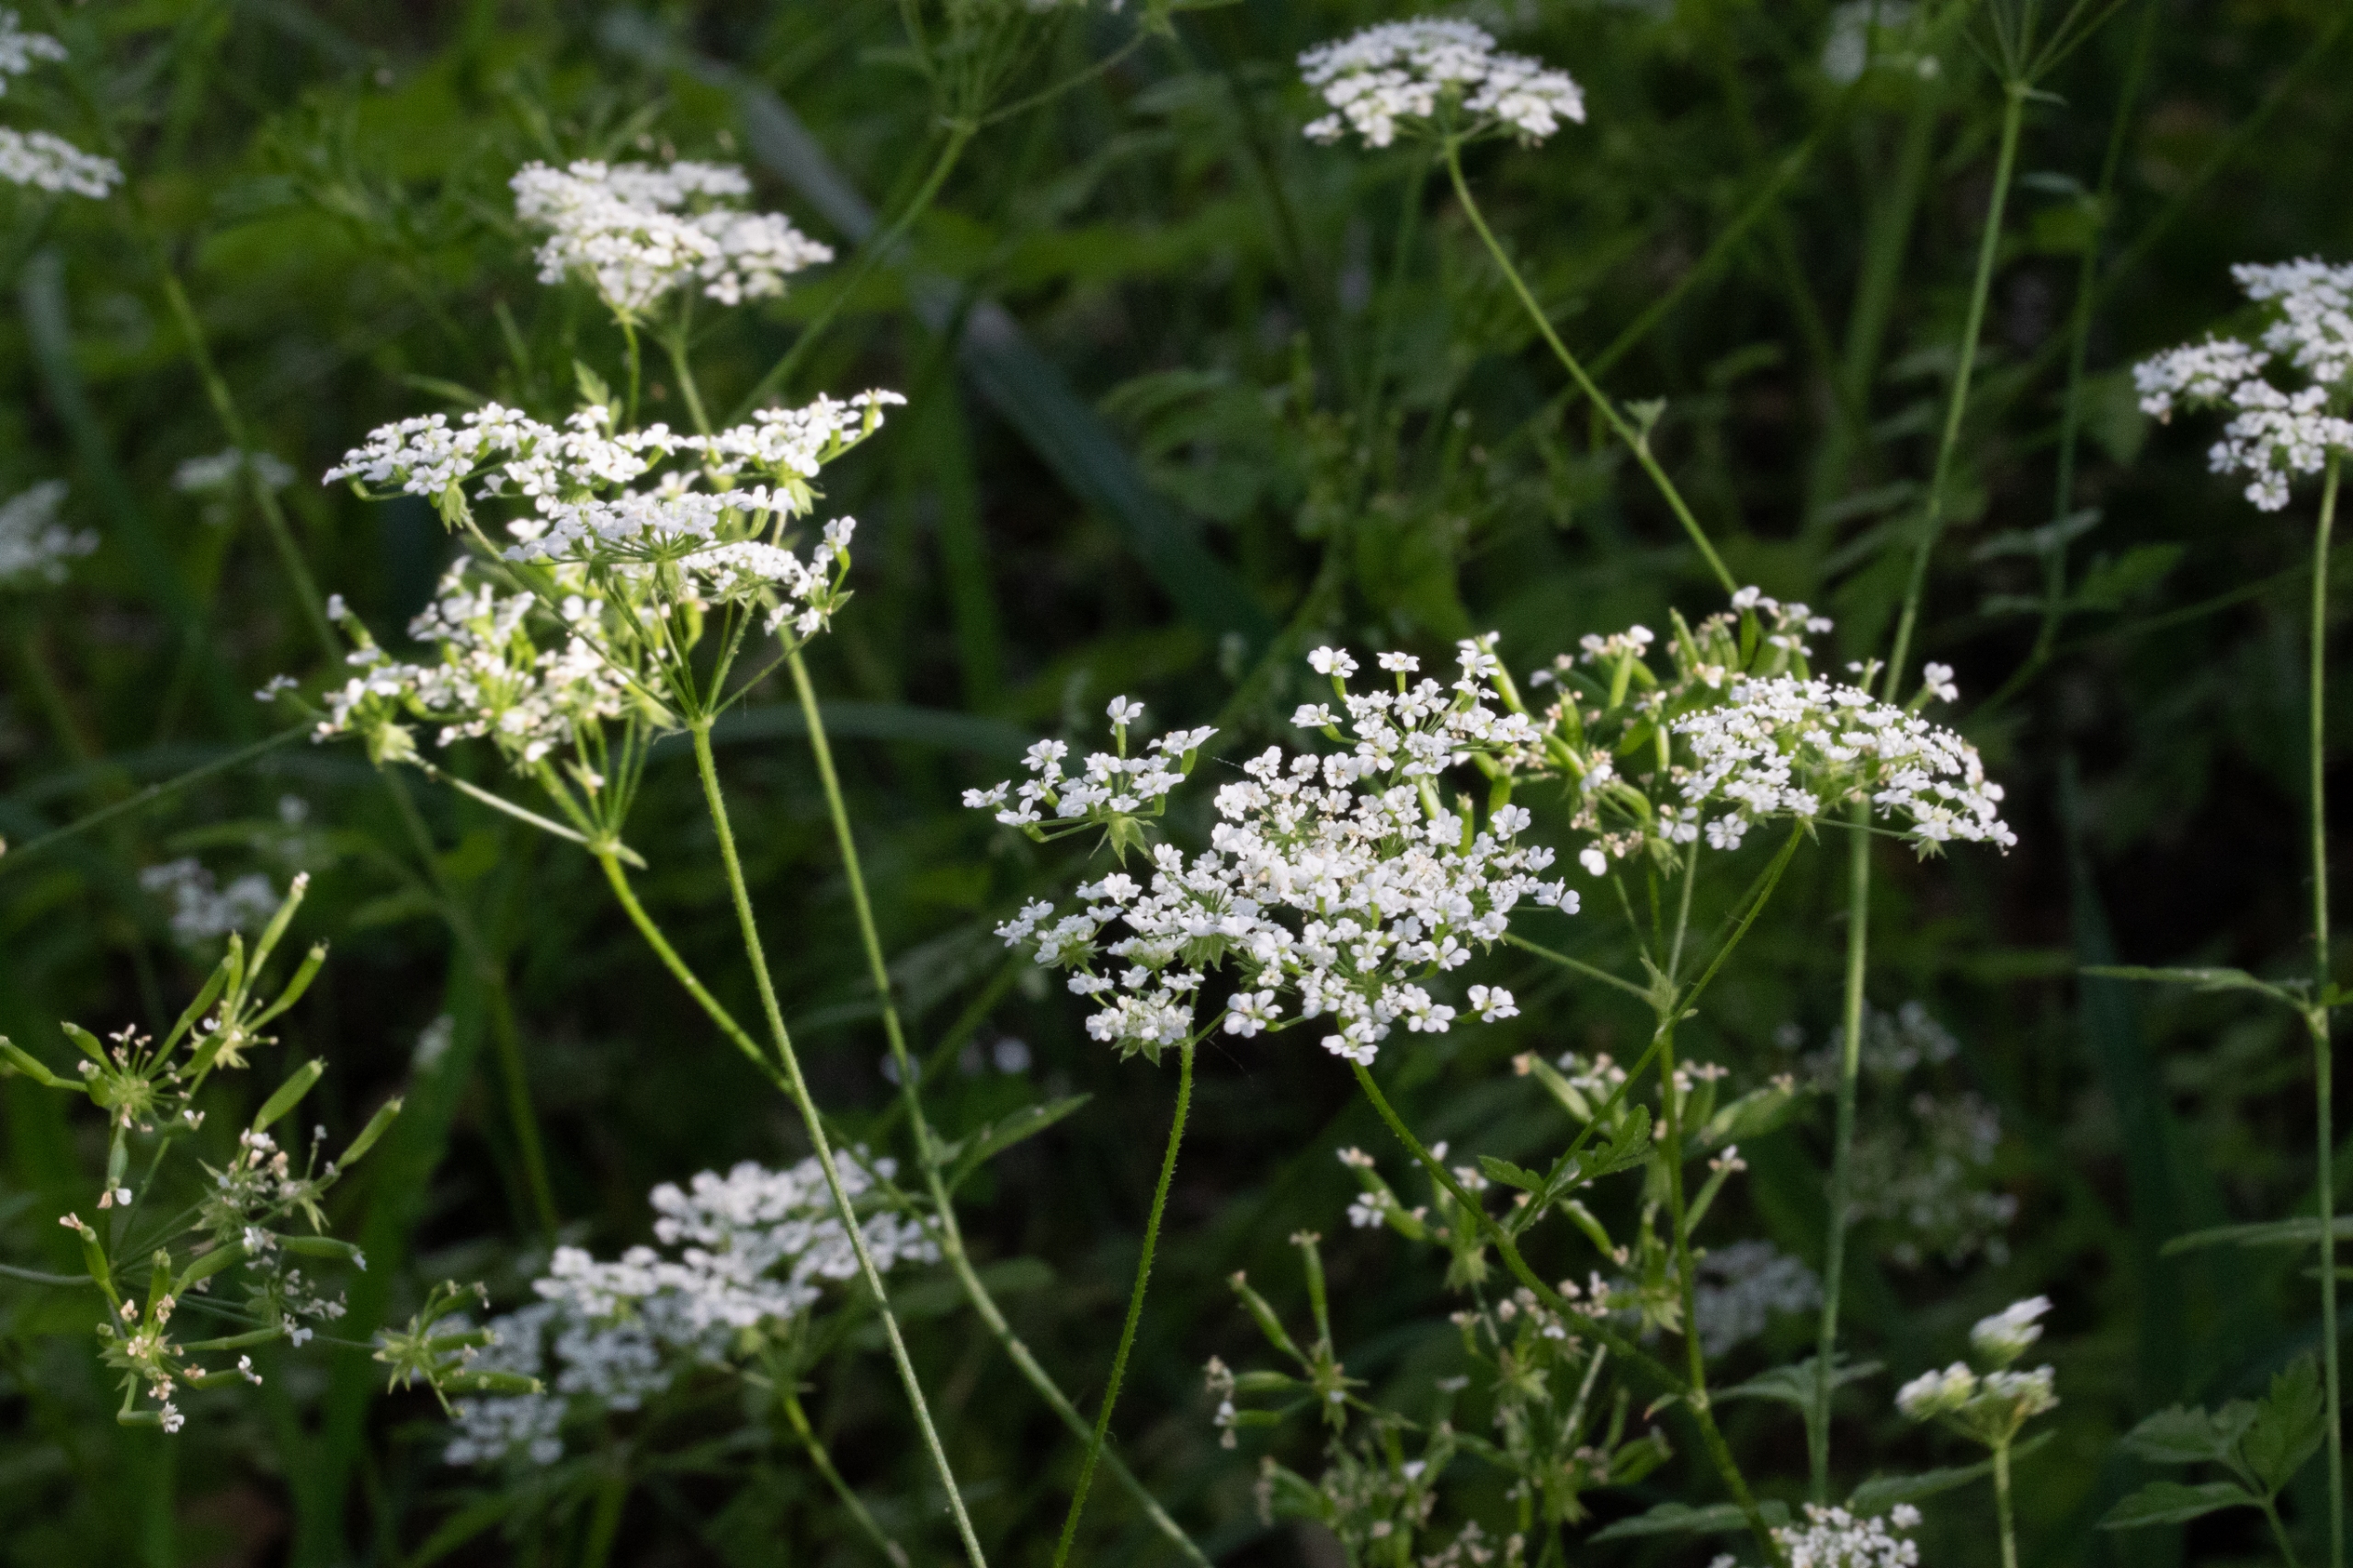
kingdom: Plantae
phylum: Tracheophyta
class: Magnoliopsida
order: Apiales
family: Apiaceae
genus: Anthriscus
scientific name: Anthriscus sylvestris
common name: Vild kørvel
